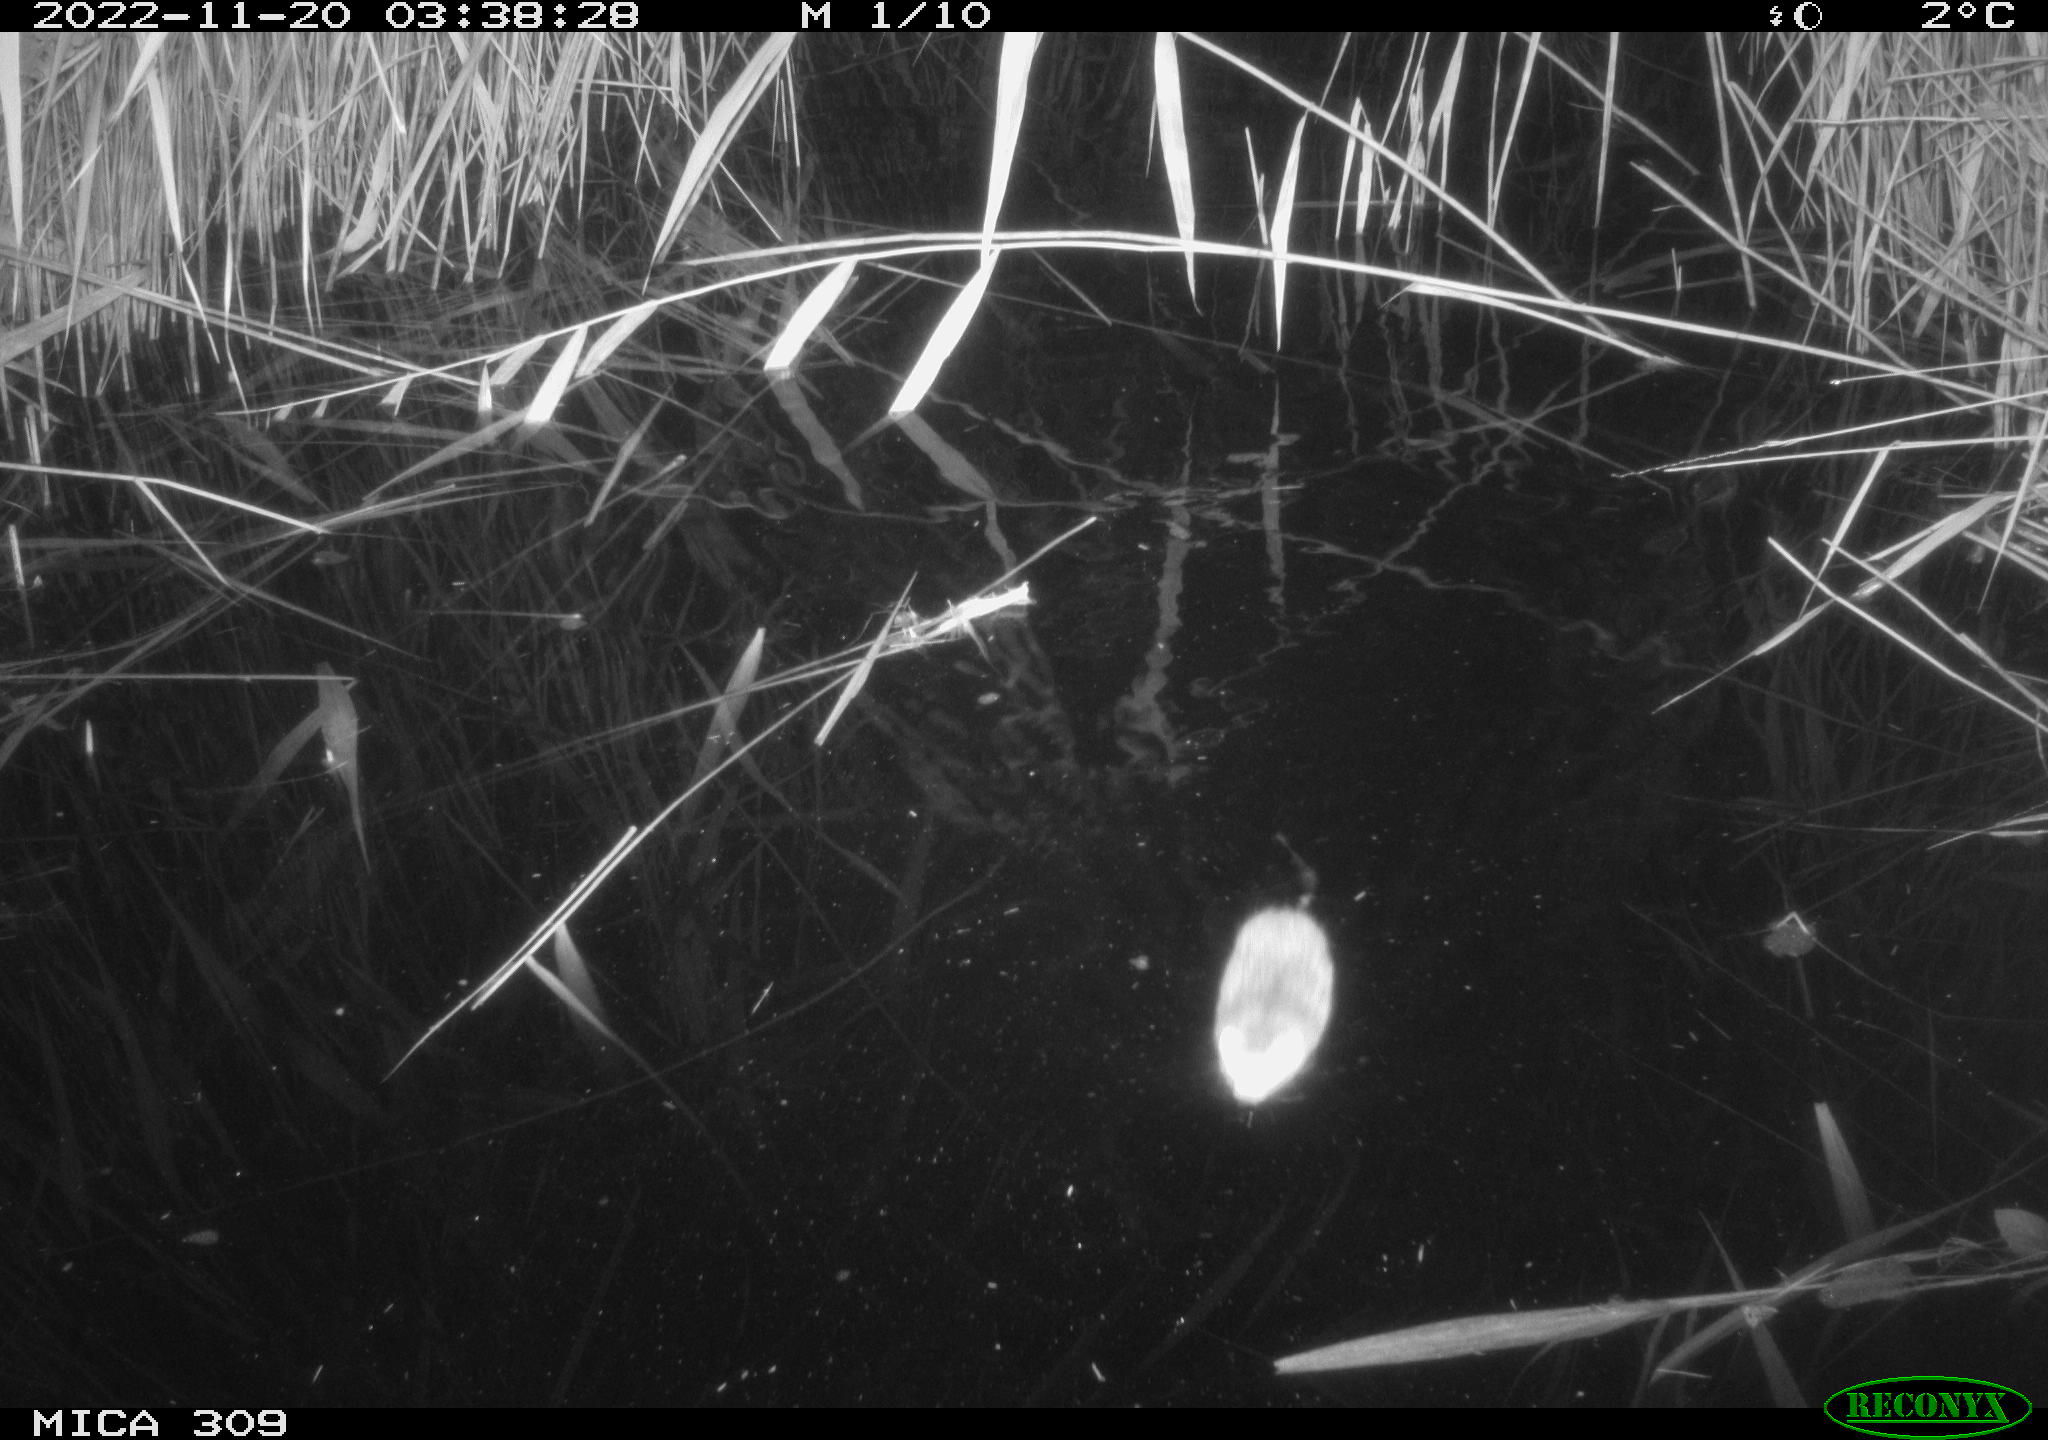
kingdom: Animalia
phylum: Chordata
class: Mammalia
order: Rodentia
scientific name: Rodentia
